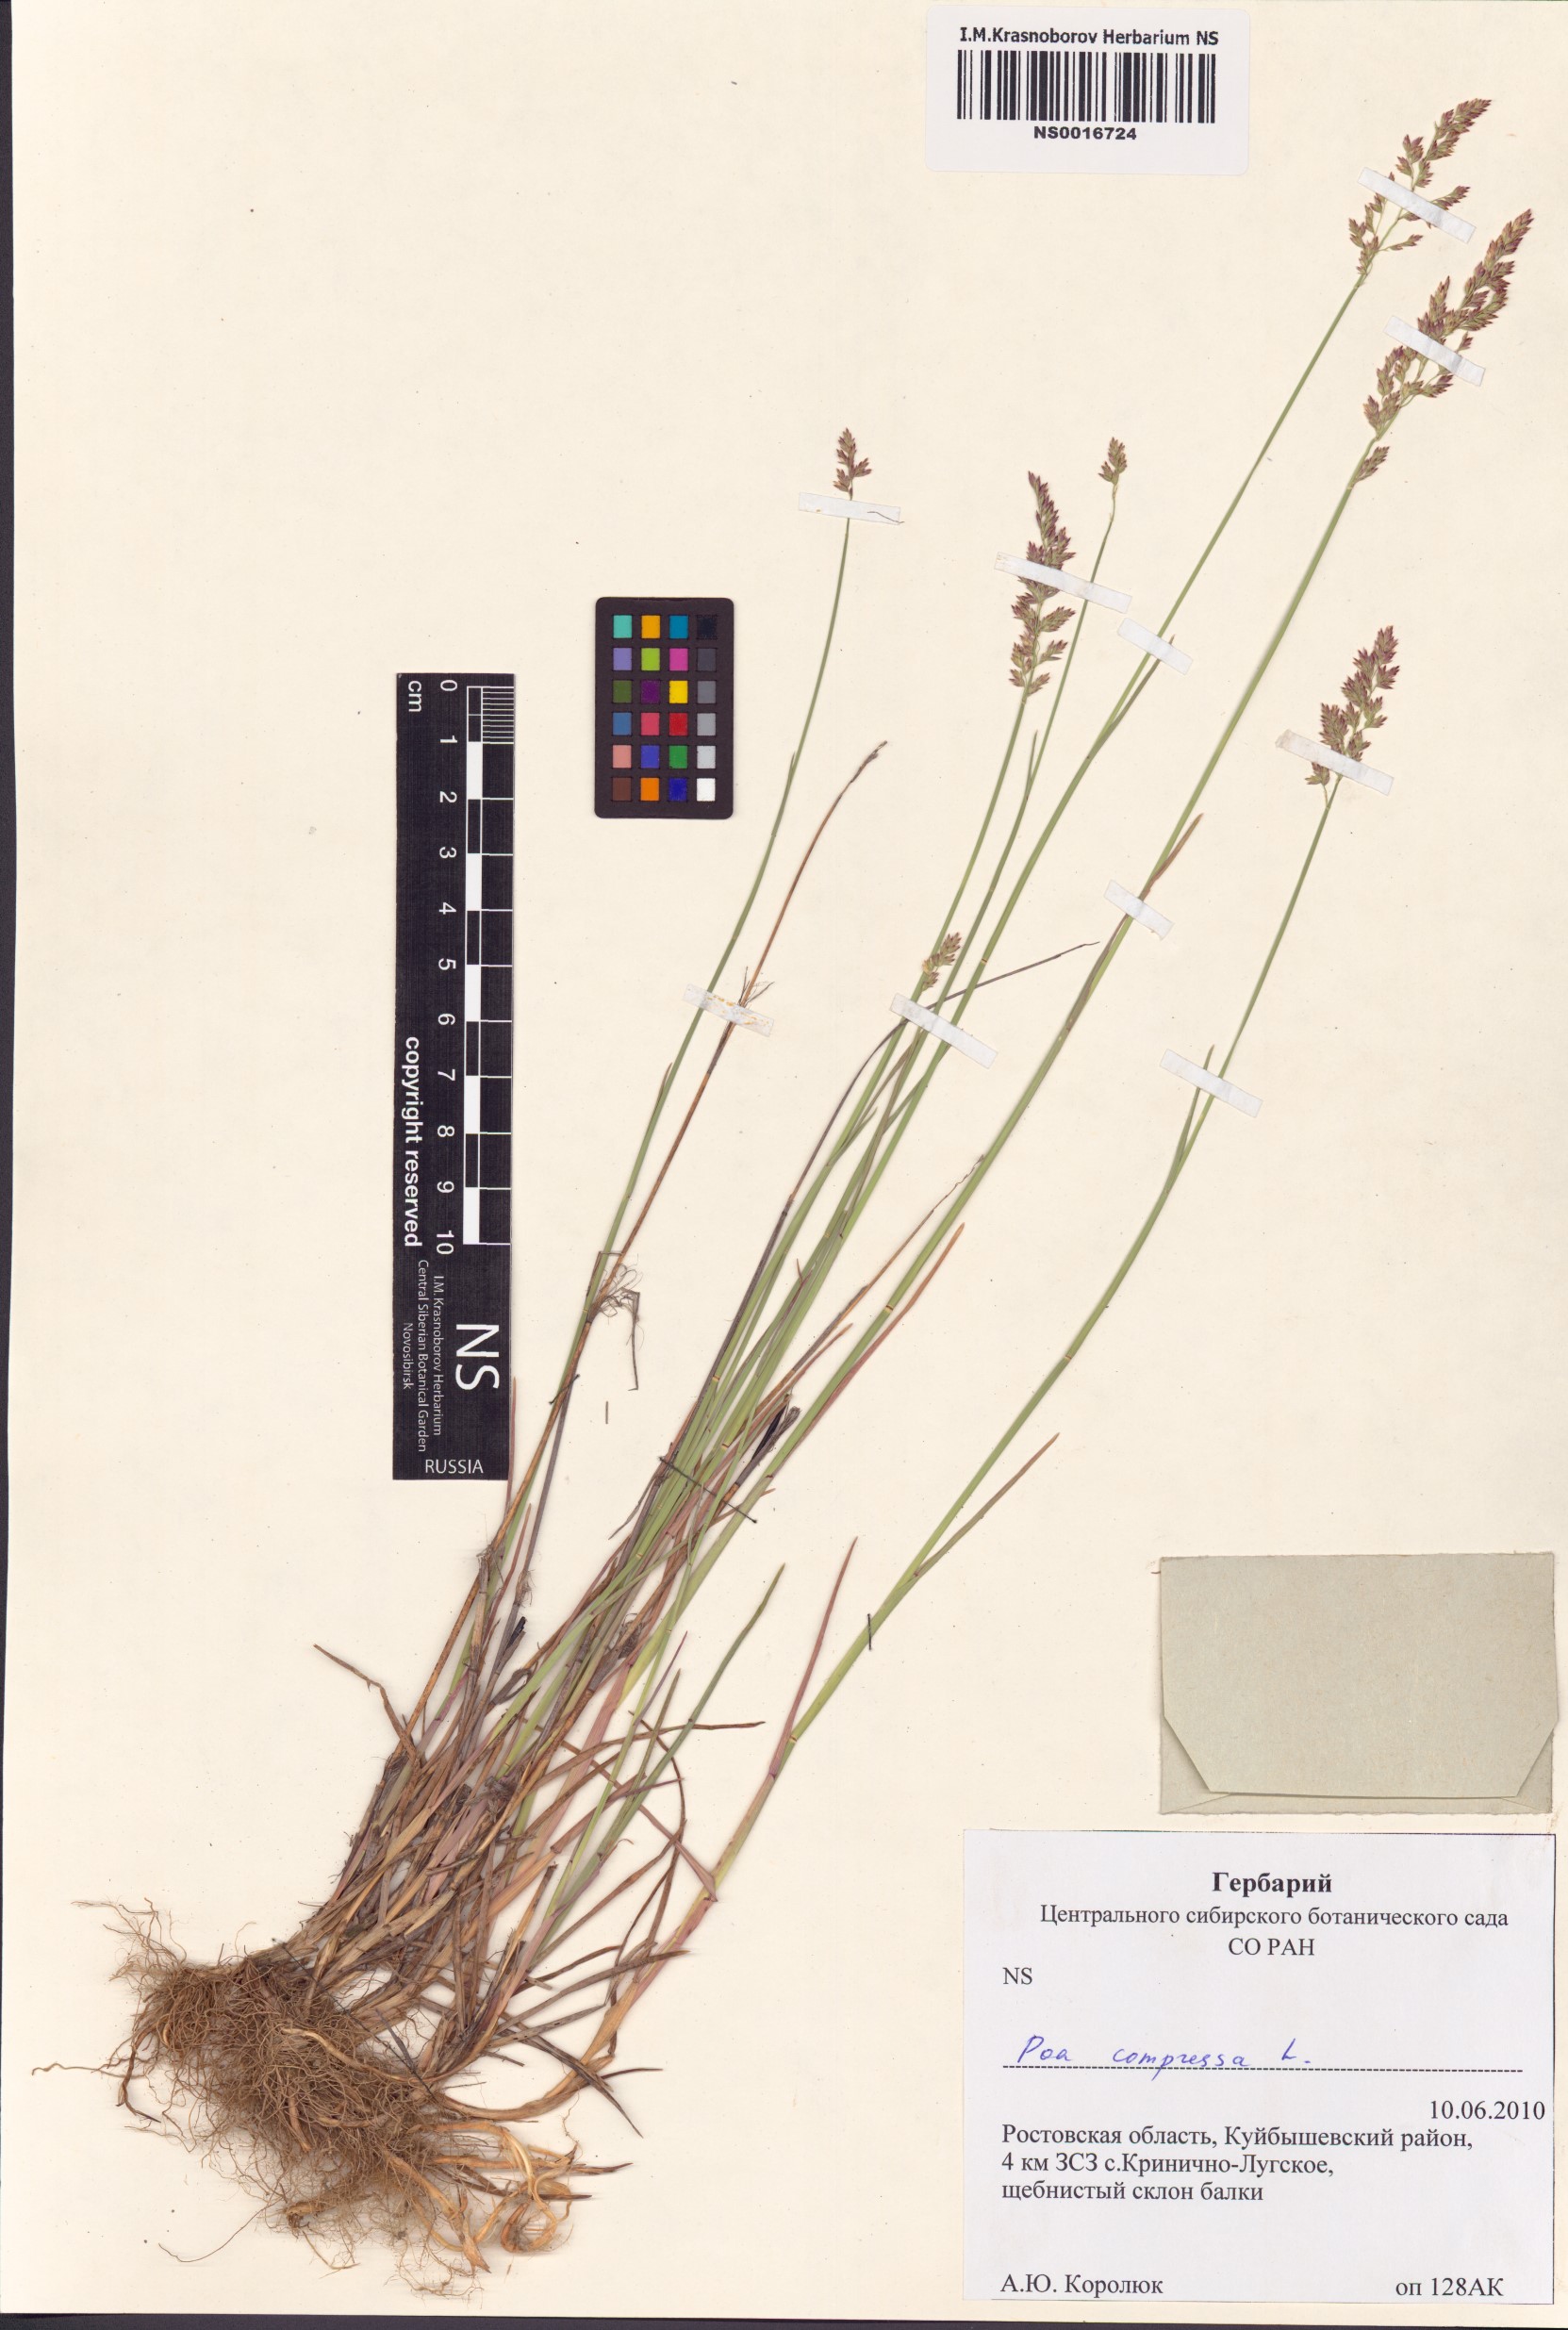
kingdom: Plantae
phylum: Tracheophyta
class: Liliopsida
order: Poales
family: Poaceae
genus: Poa
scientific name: Poa compressa
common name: Canada bluegrass
